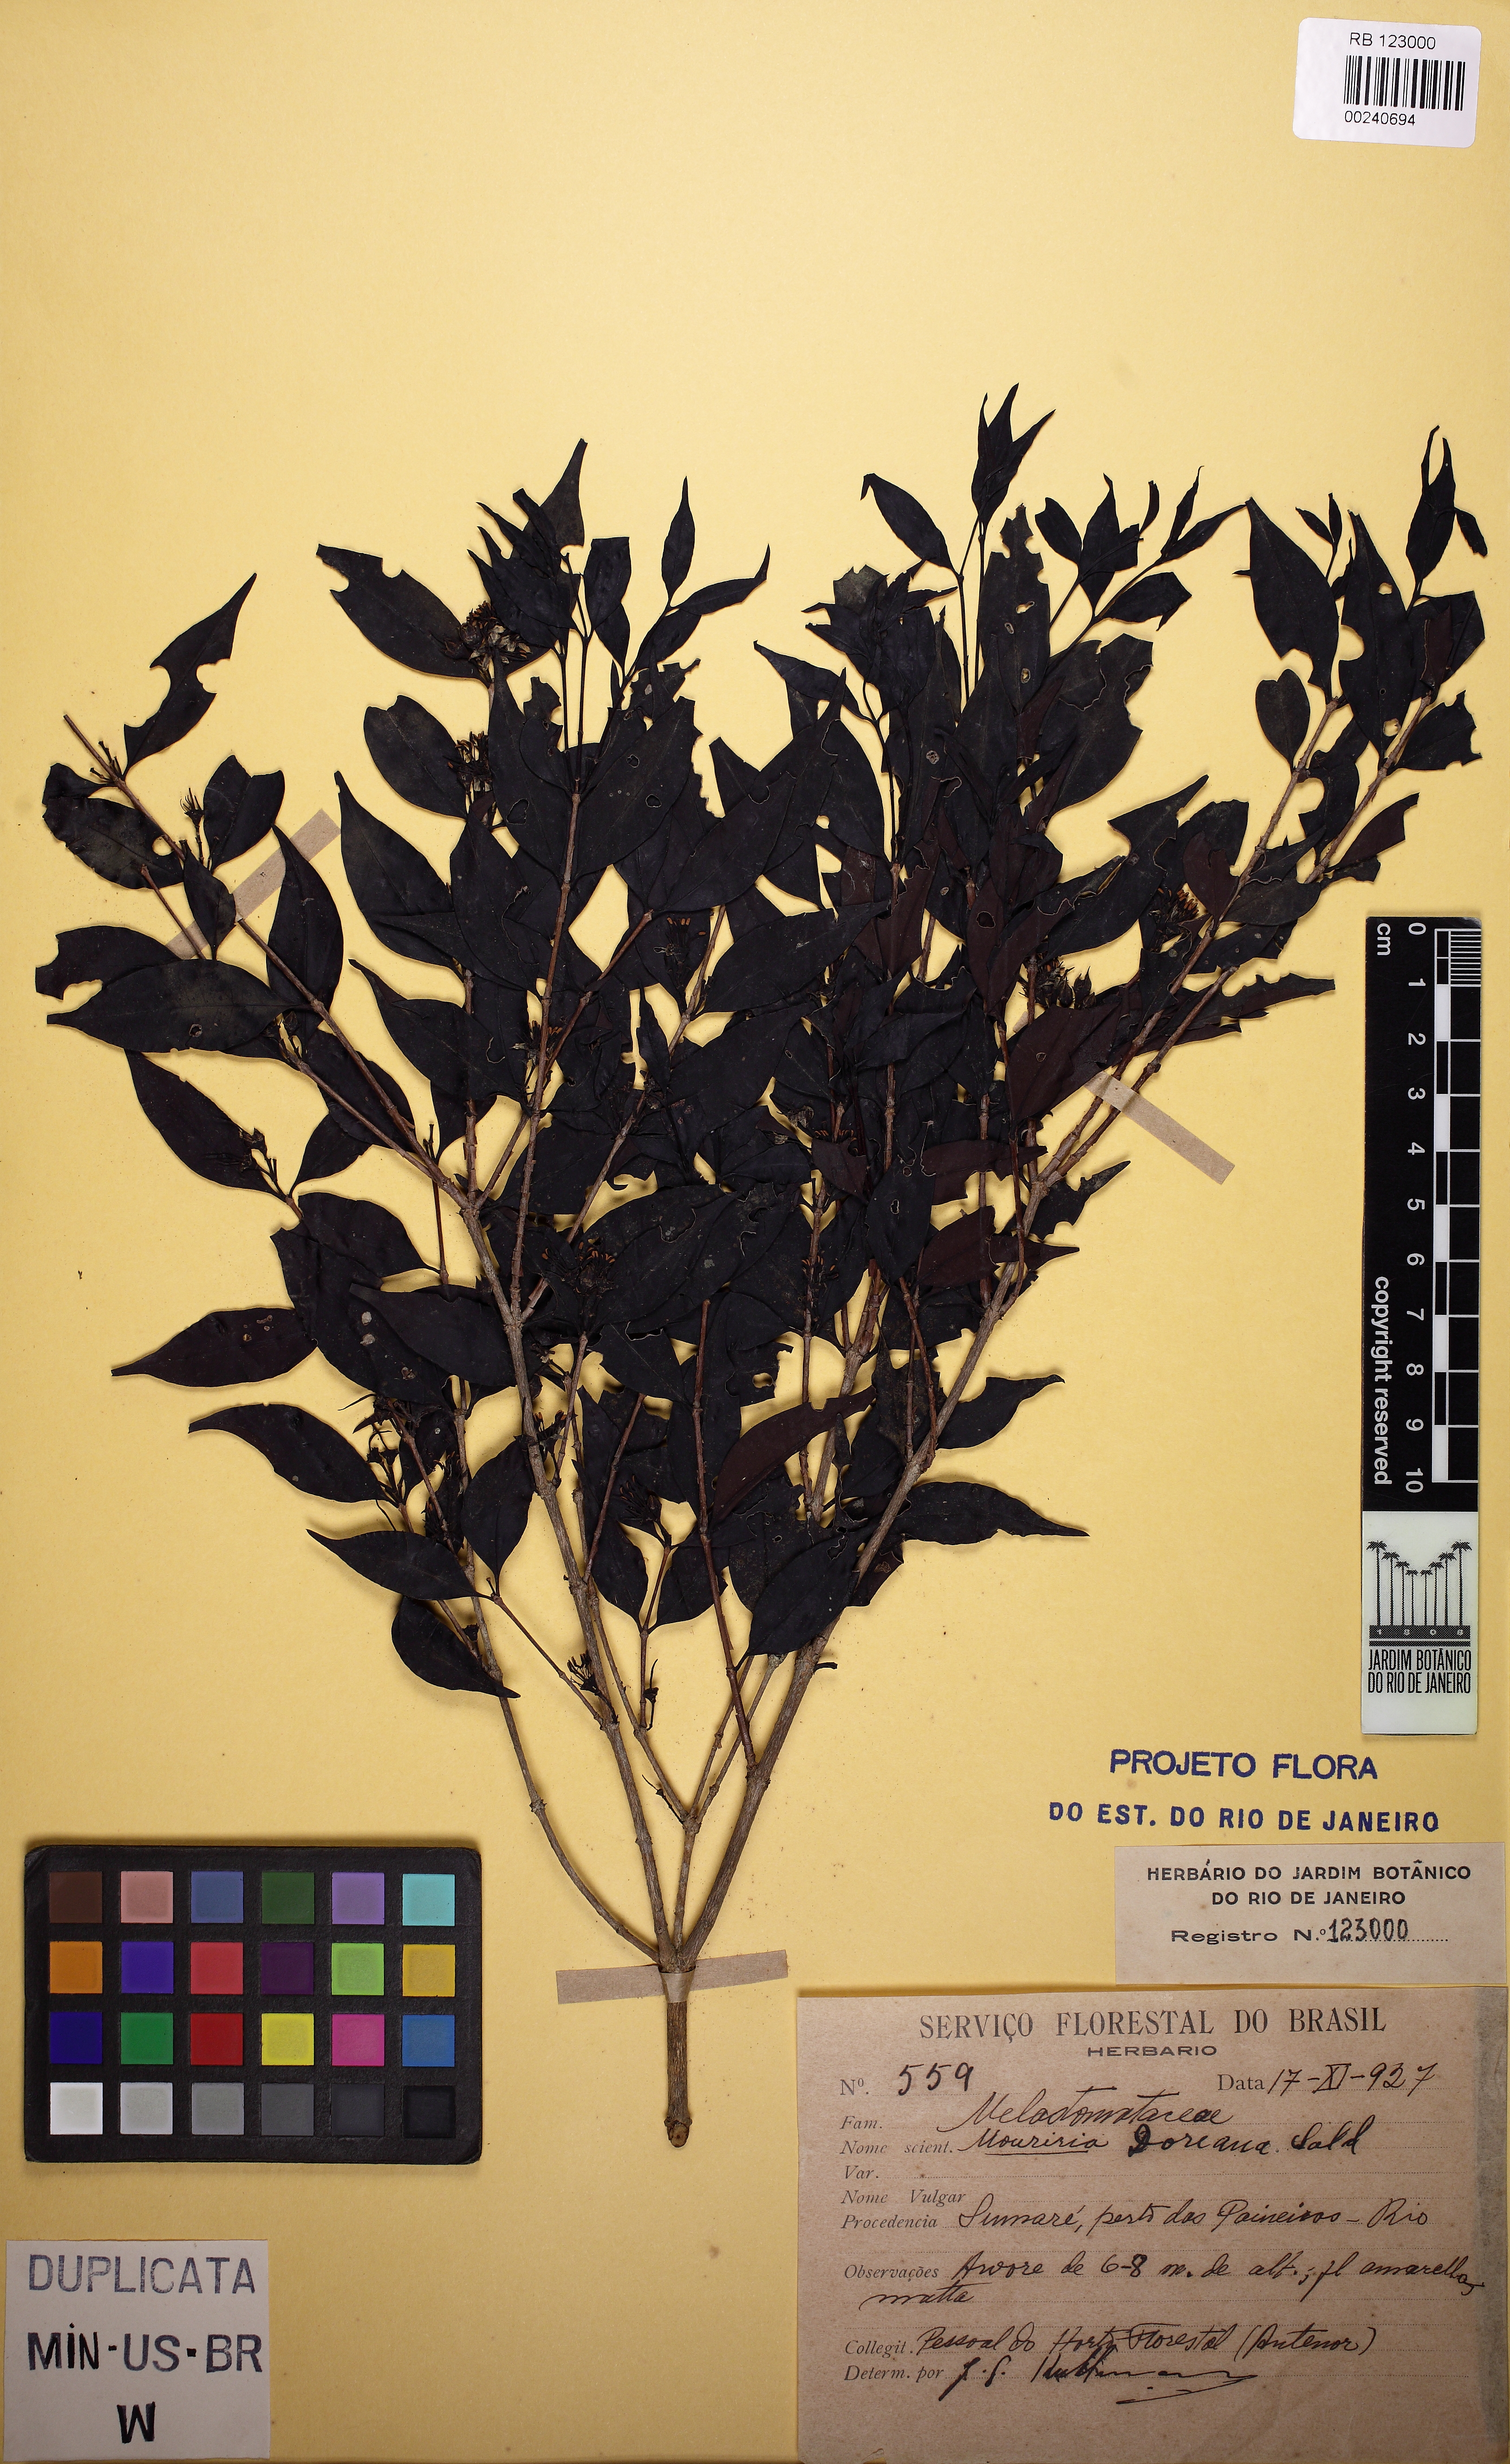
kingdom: Plantae
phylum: Tracheophyta
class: Magnoliopsida
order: Myrtales
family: Melastomataceae
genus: Mouriri
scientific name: Mouriri doriana
